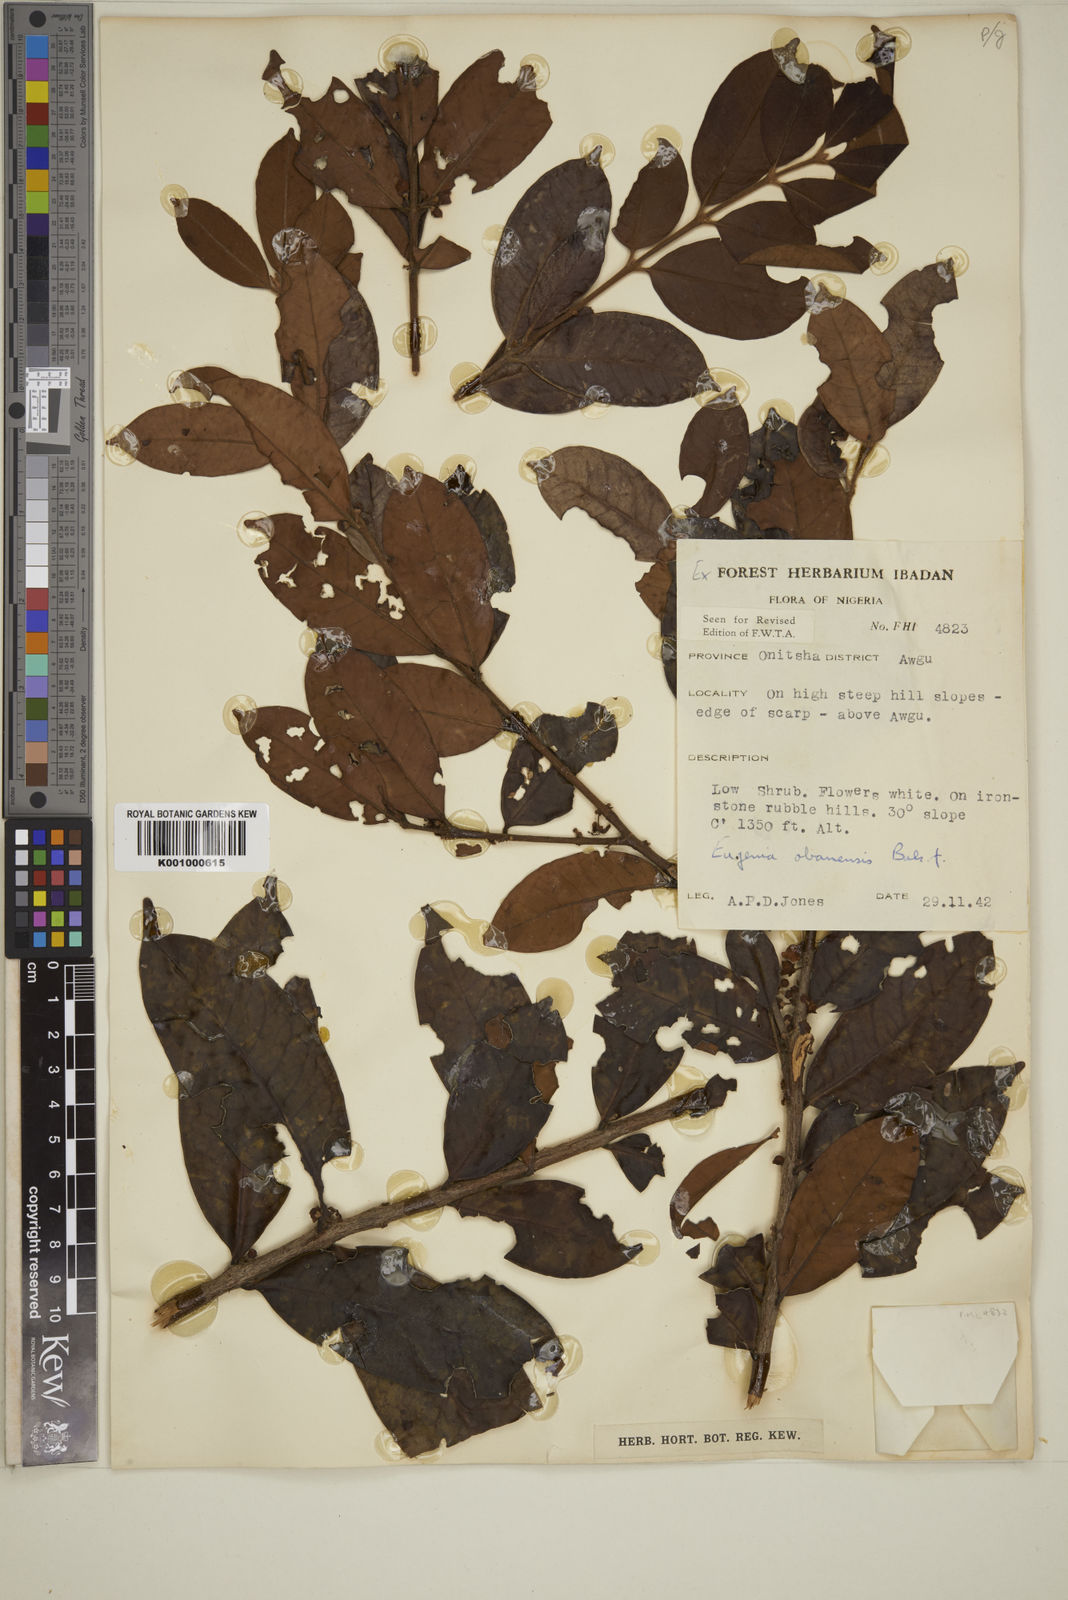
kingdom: Plantae
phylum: Tracheophyta
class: Magnoliopsida
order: Myrtales
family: Myrtaceae
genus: Eugenia
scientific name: Eugenia obanensis
